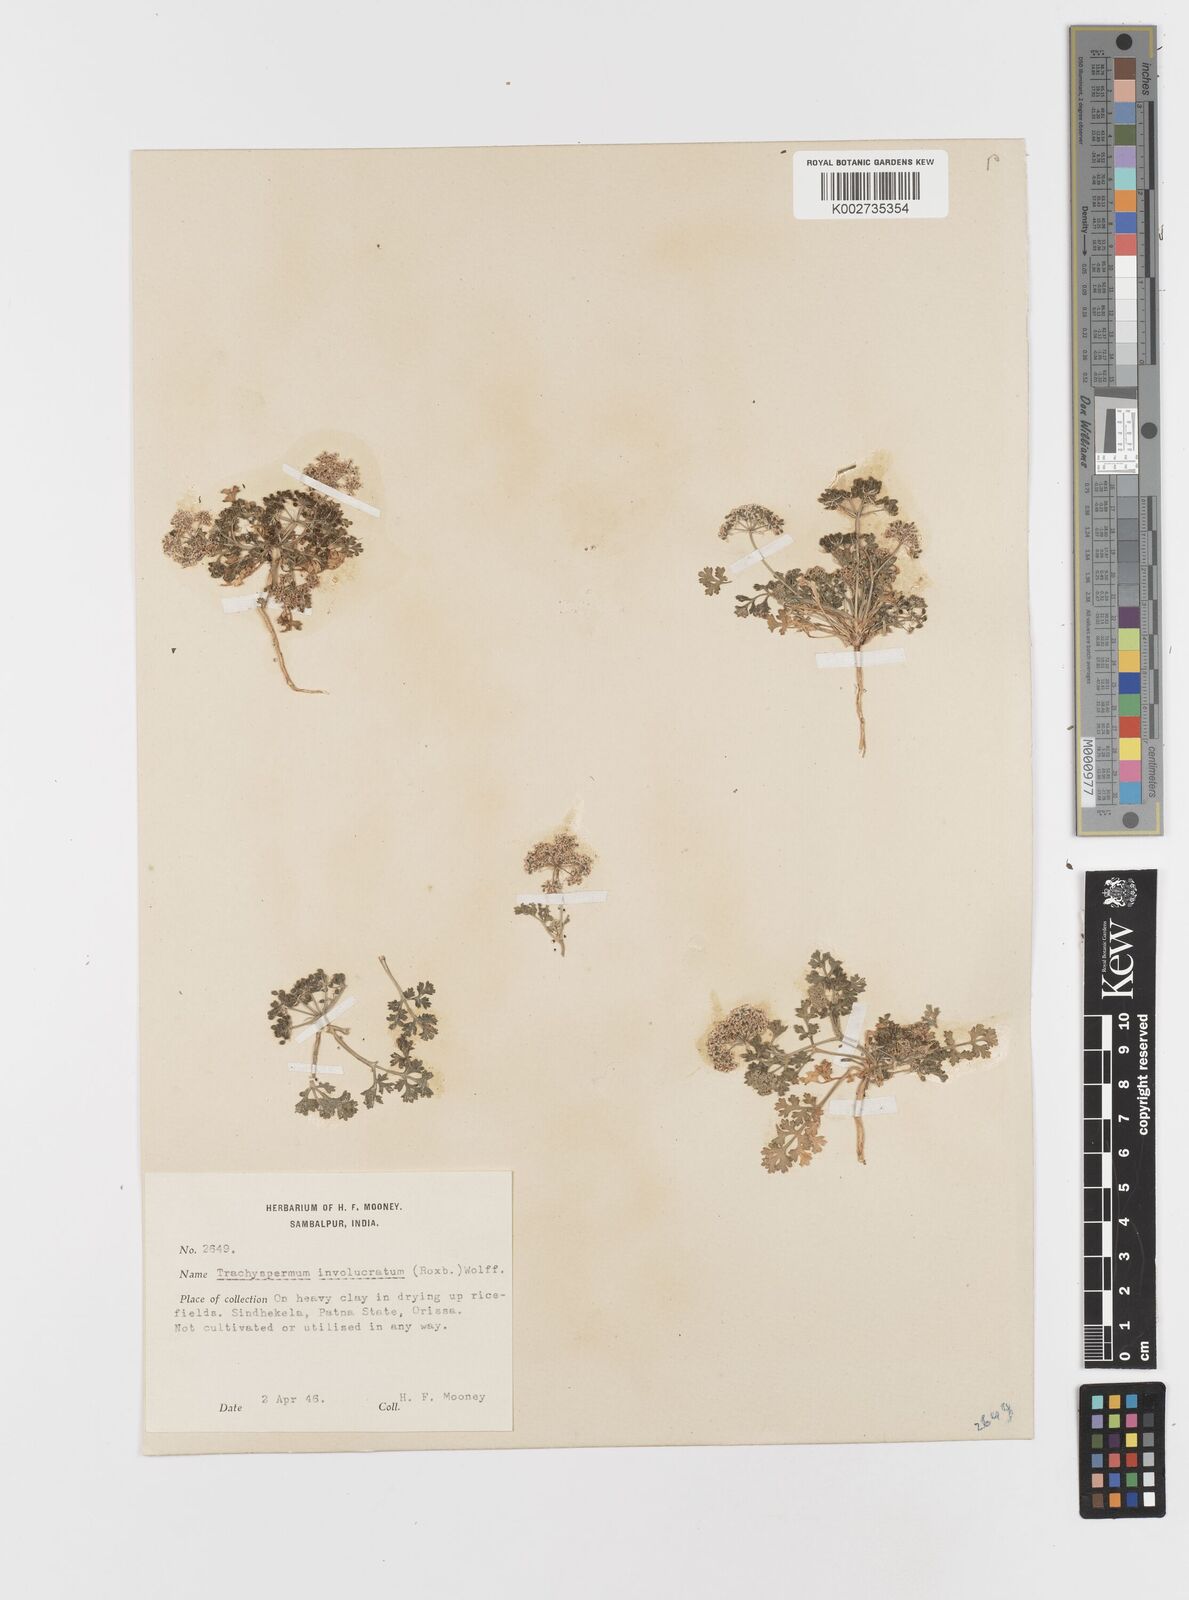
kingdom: Plantae
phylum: Tracheophyta
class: Magnoliopsida
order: Apiales
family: Apiaceae
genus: Psammogeton
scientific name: Psammogeton involucratum
